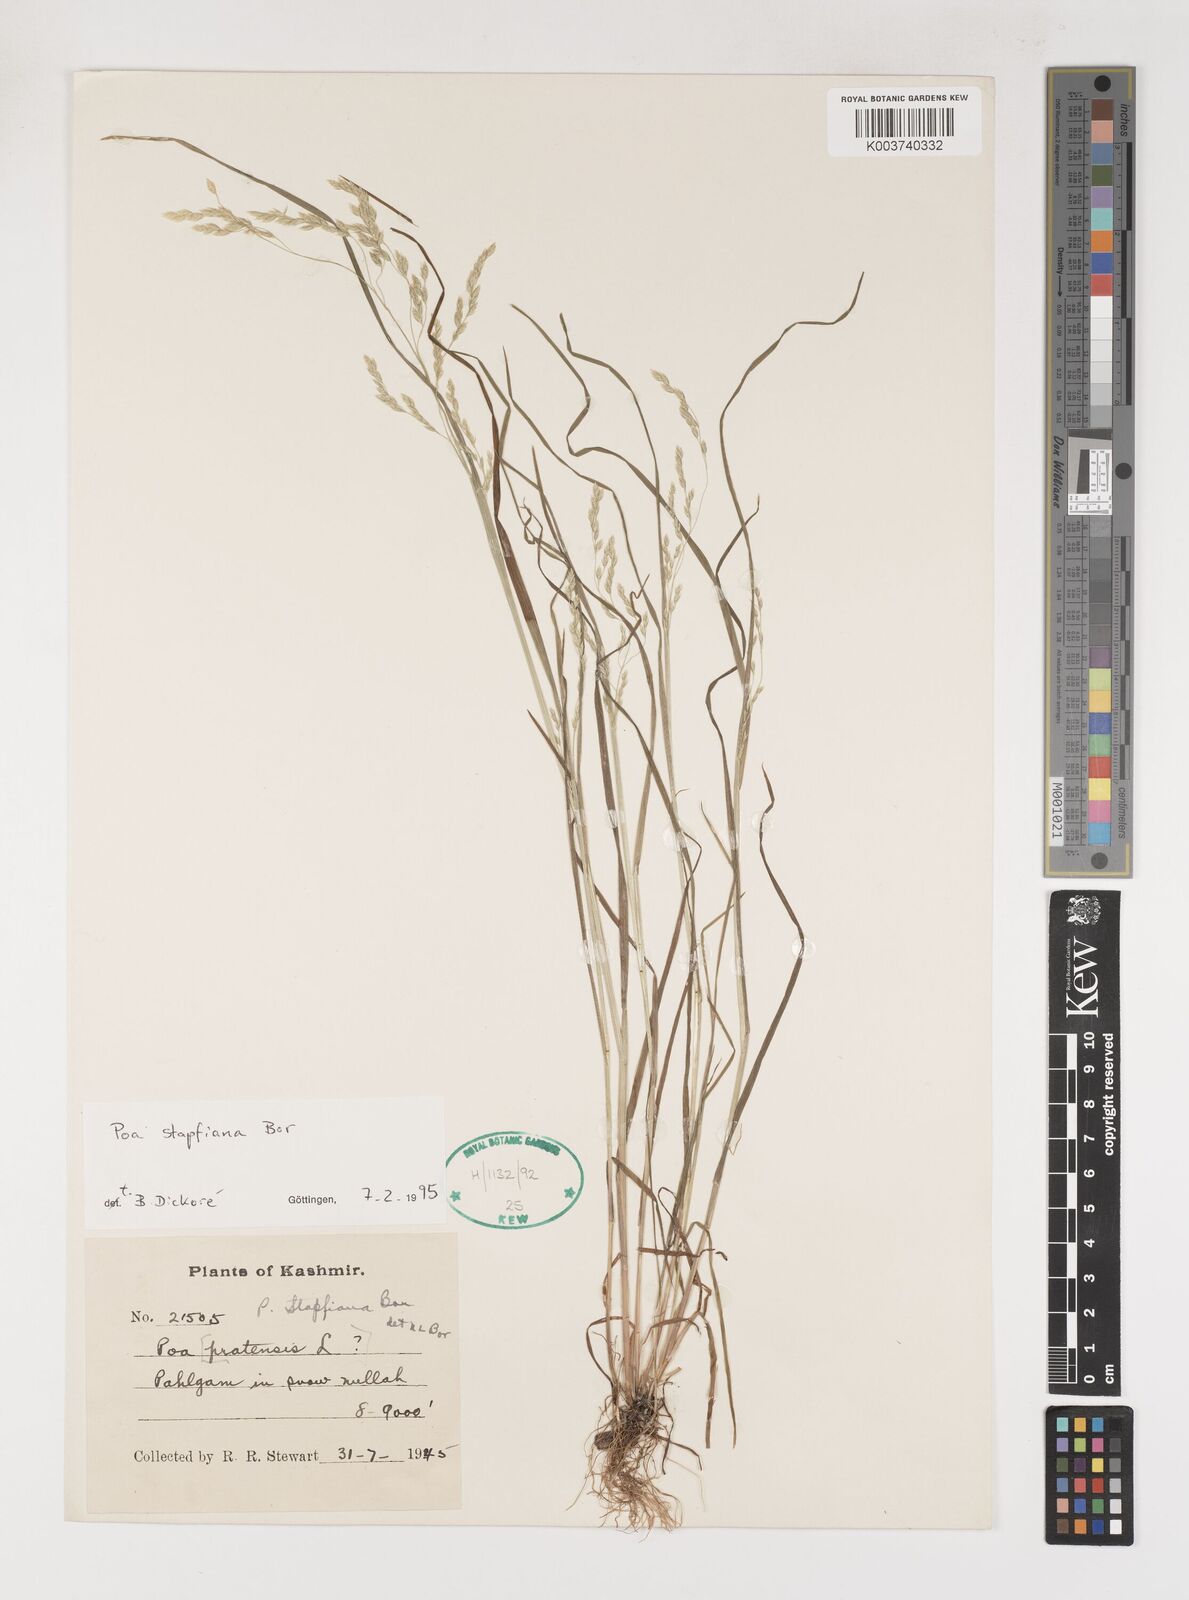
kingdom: Plantae
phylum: Tracheophyta
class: Liliopsida
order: Poales
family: Poaceae
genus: Poa
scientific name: Poa stapfiana
